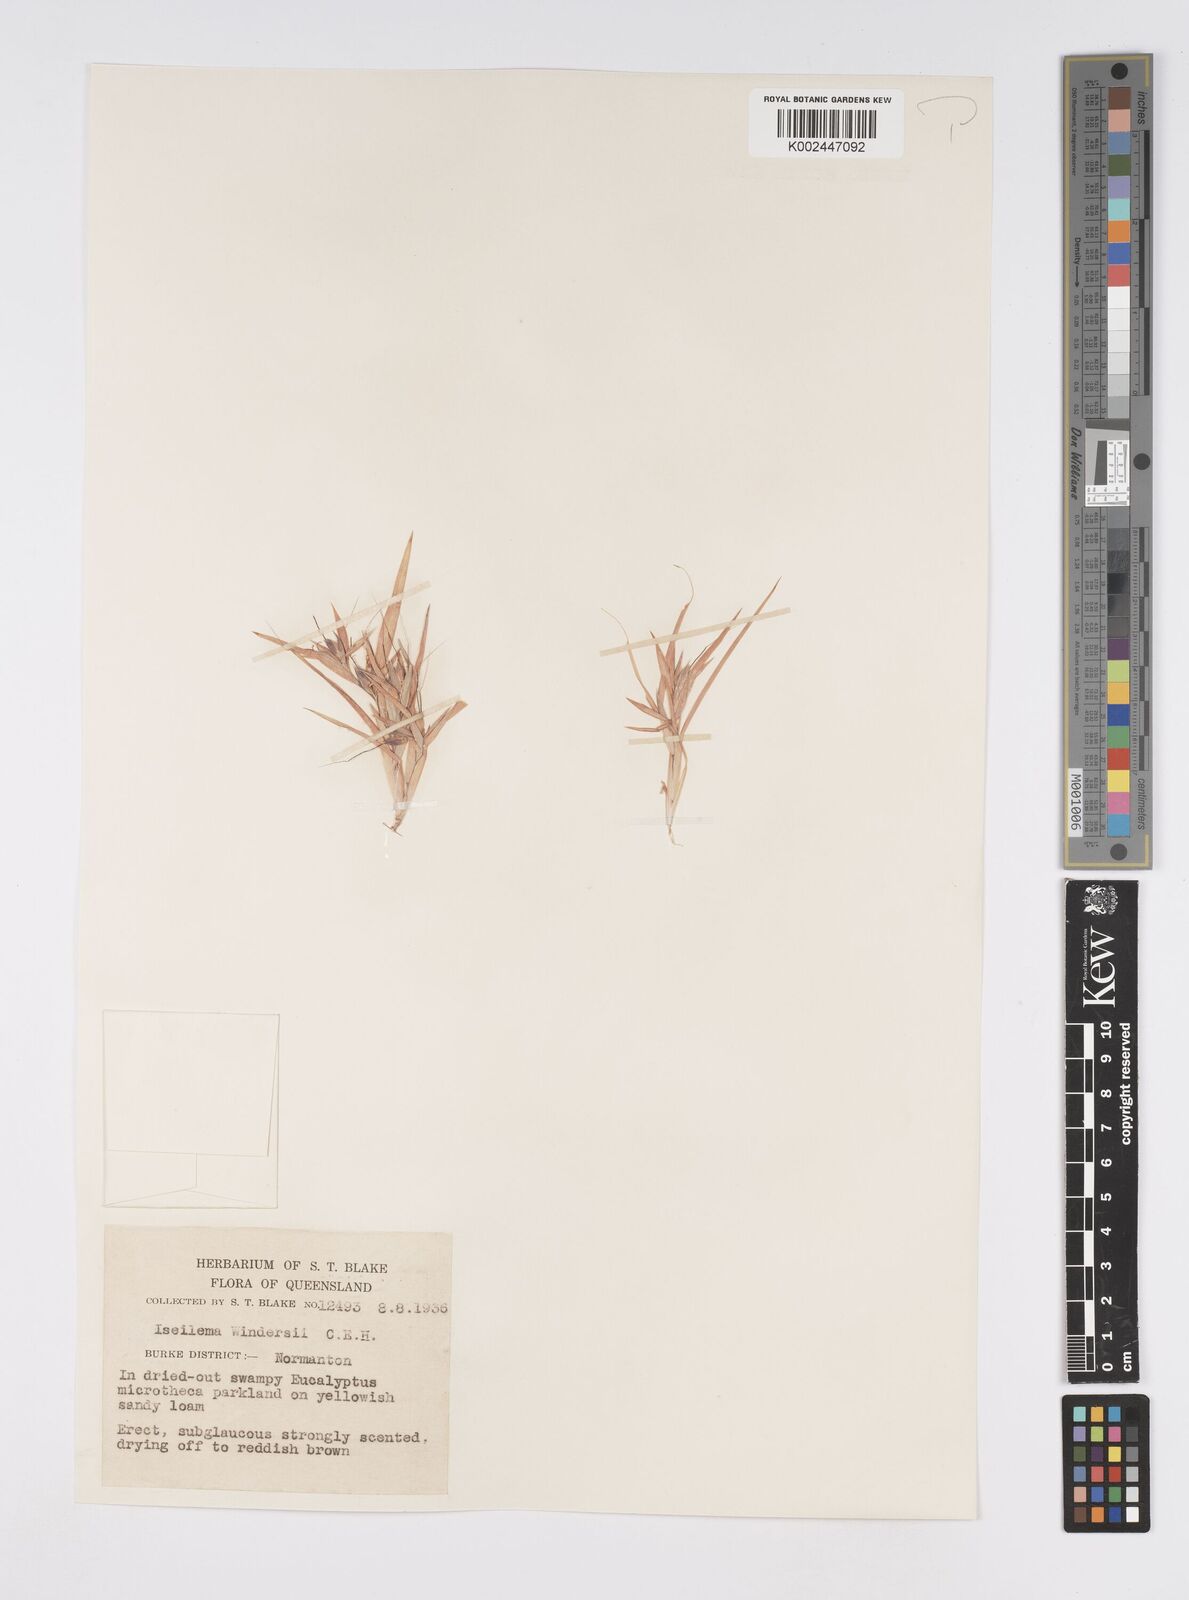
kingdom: Plantae
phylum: Tracheophyta
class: Liliopsida
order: Poales
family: Poaceae
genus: Iseilema
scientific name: Iseilema windersii
